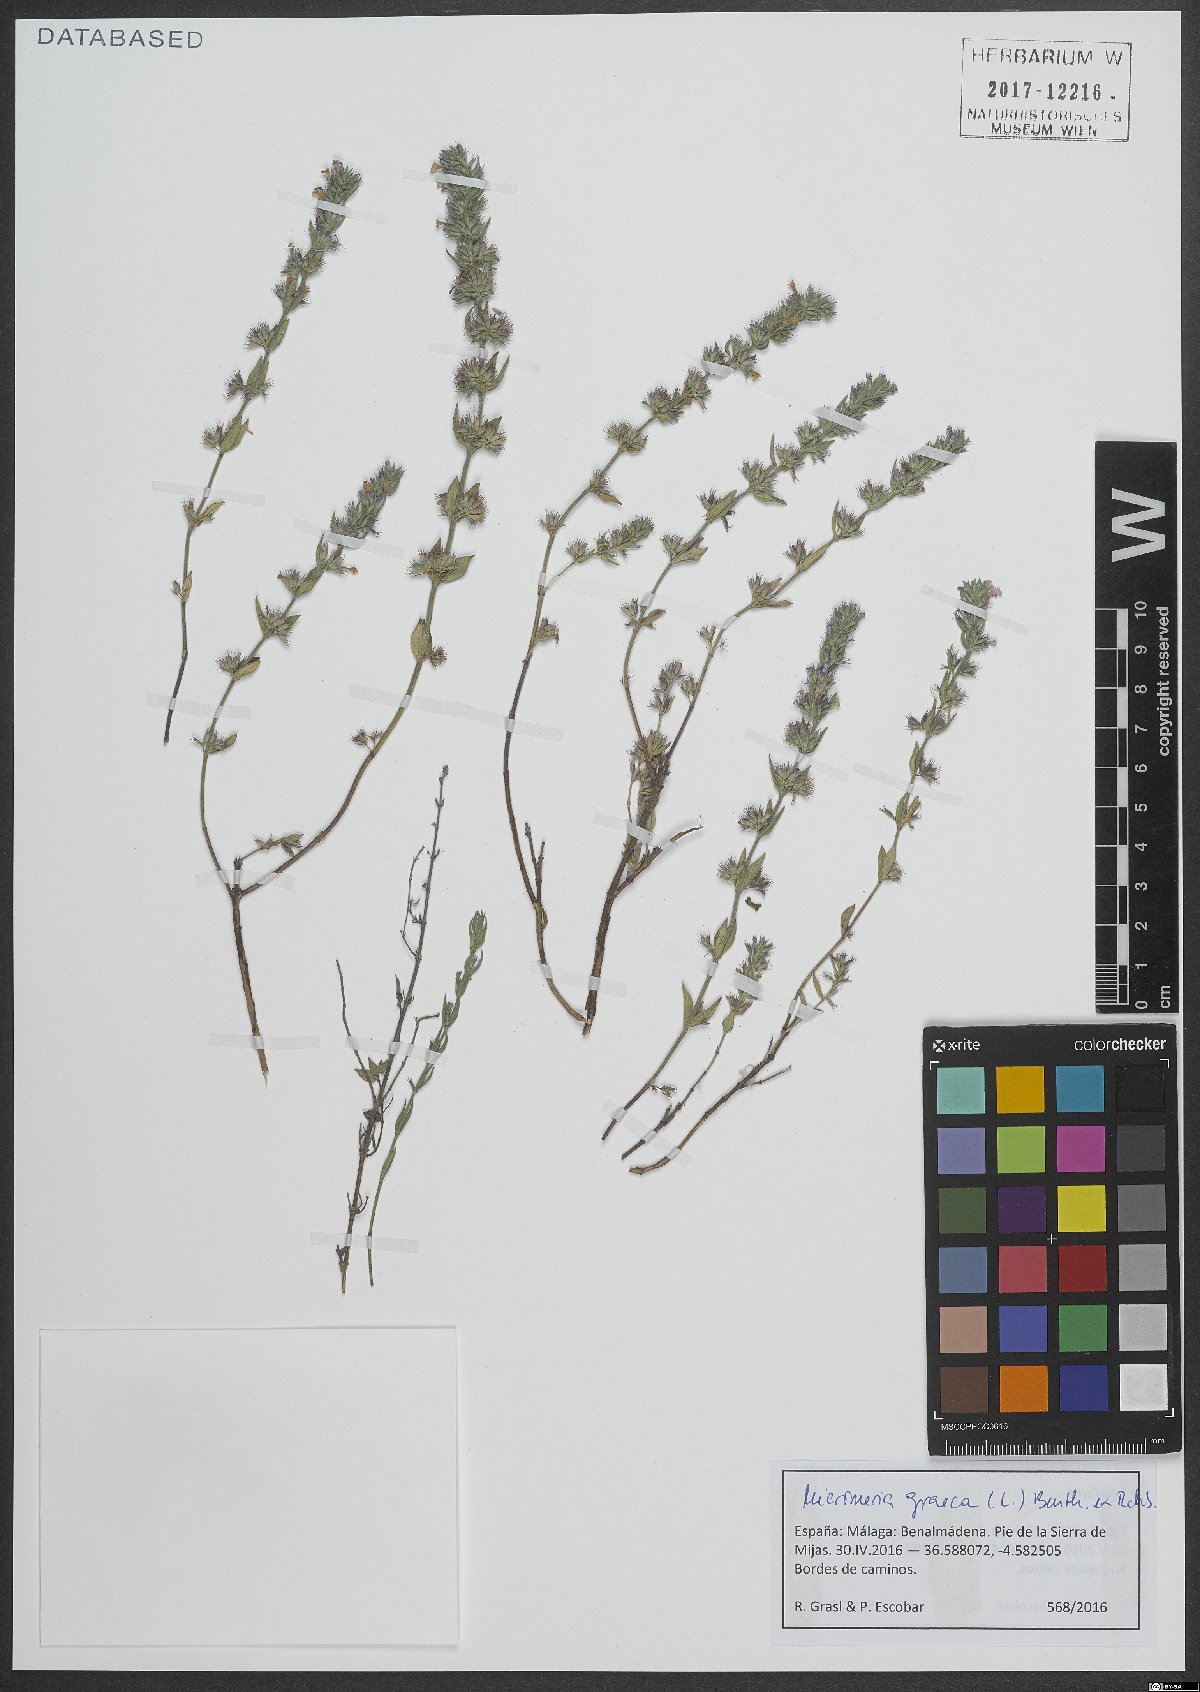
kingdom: Plantae
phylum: Tracheophyta
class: Magnoliopsida
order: Lamiales
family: Lamiaceae
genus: Micromeria
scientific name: Micromeria graeca
